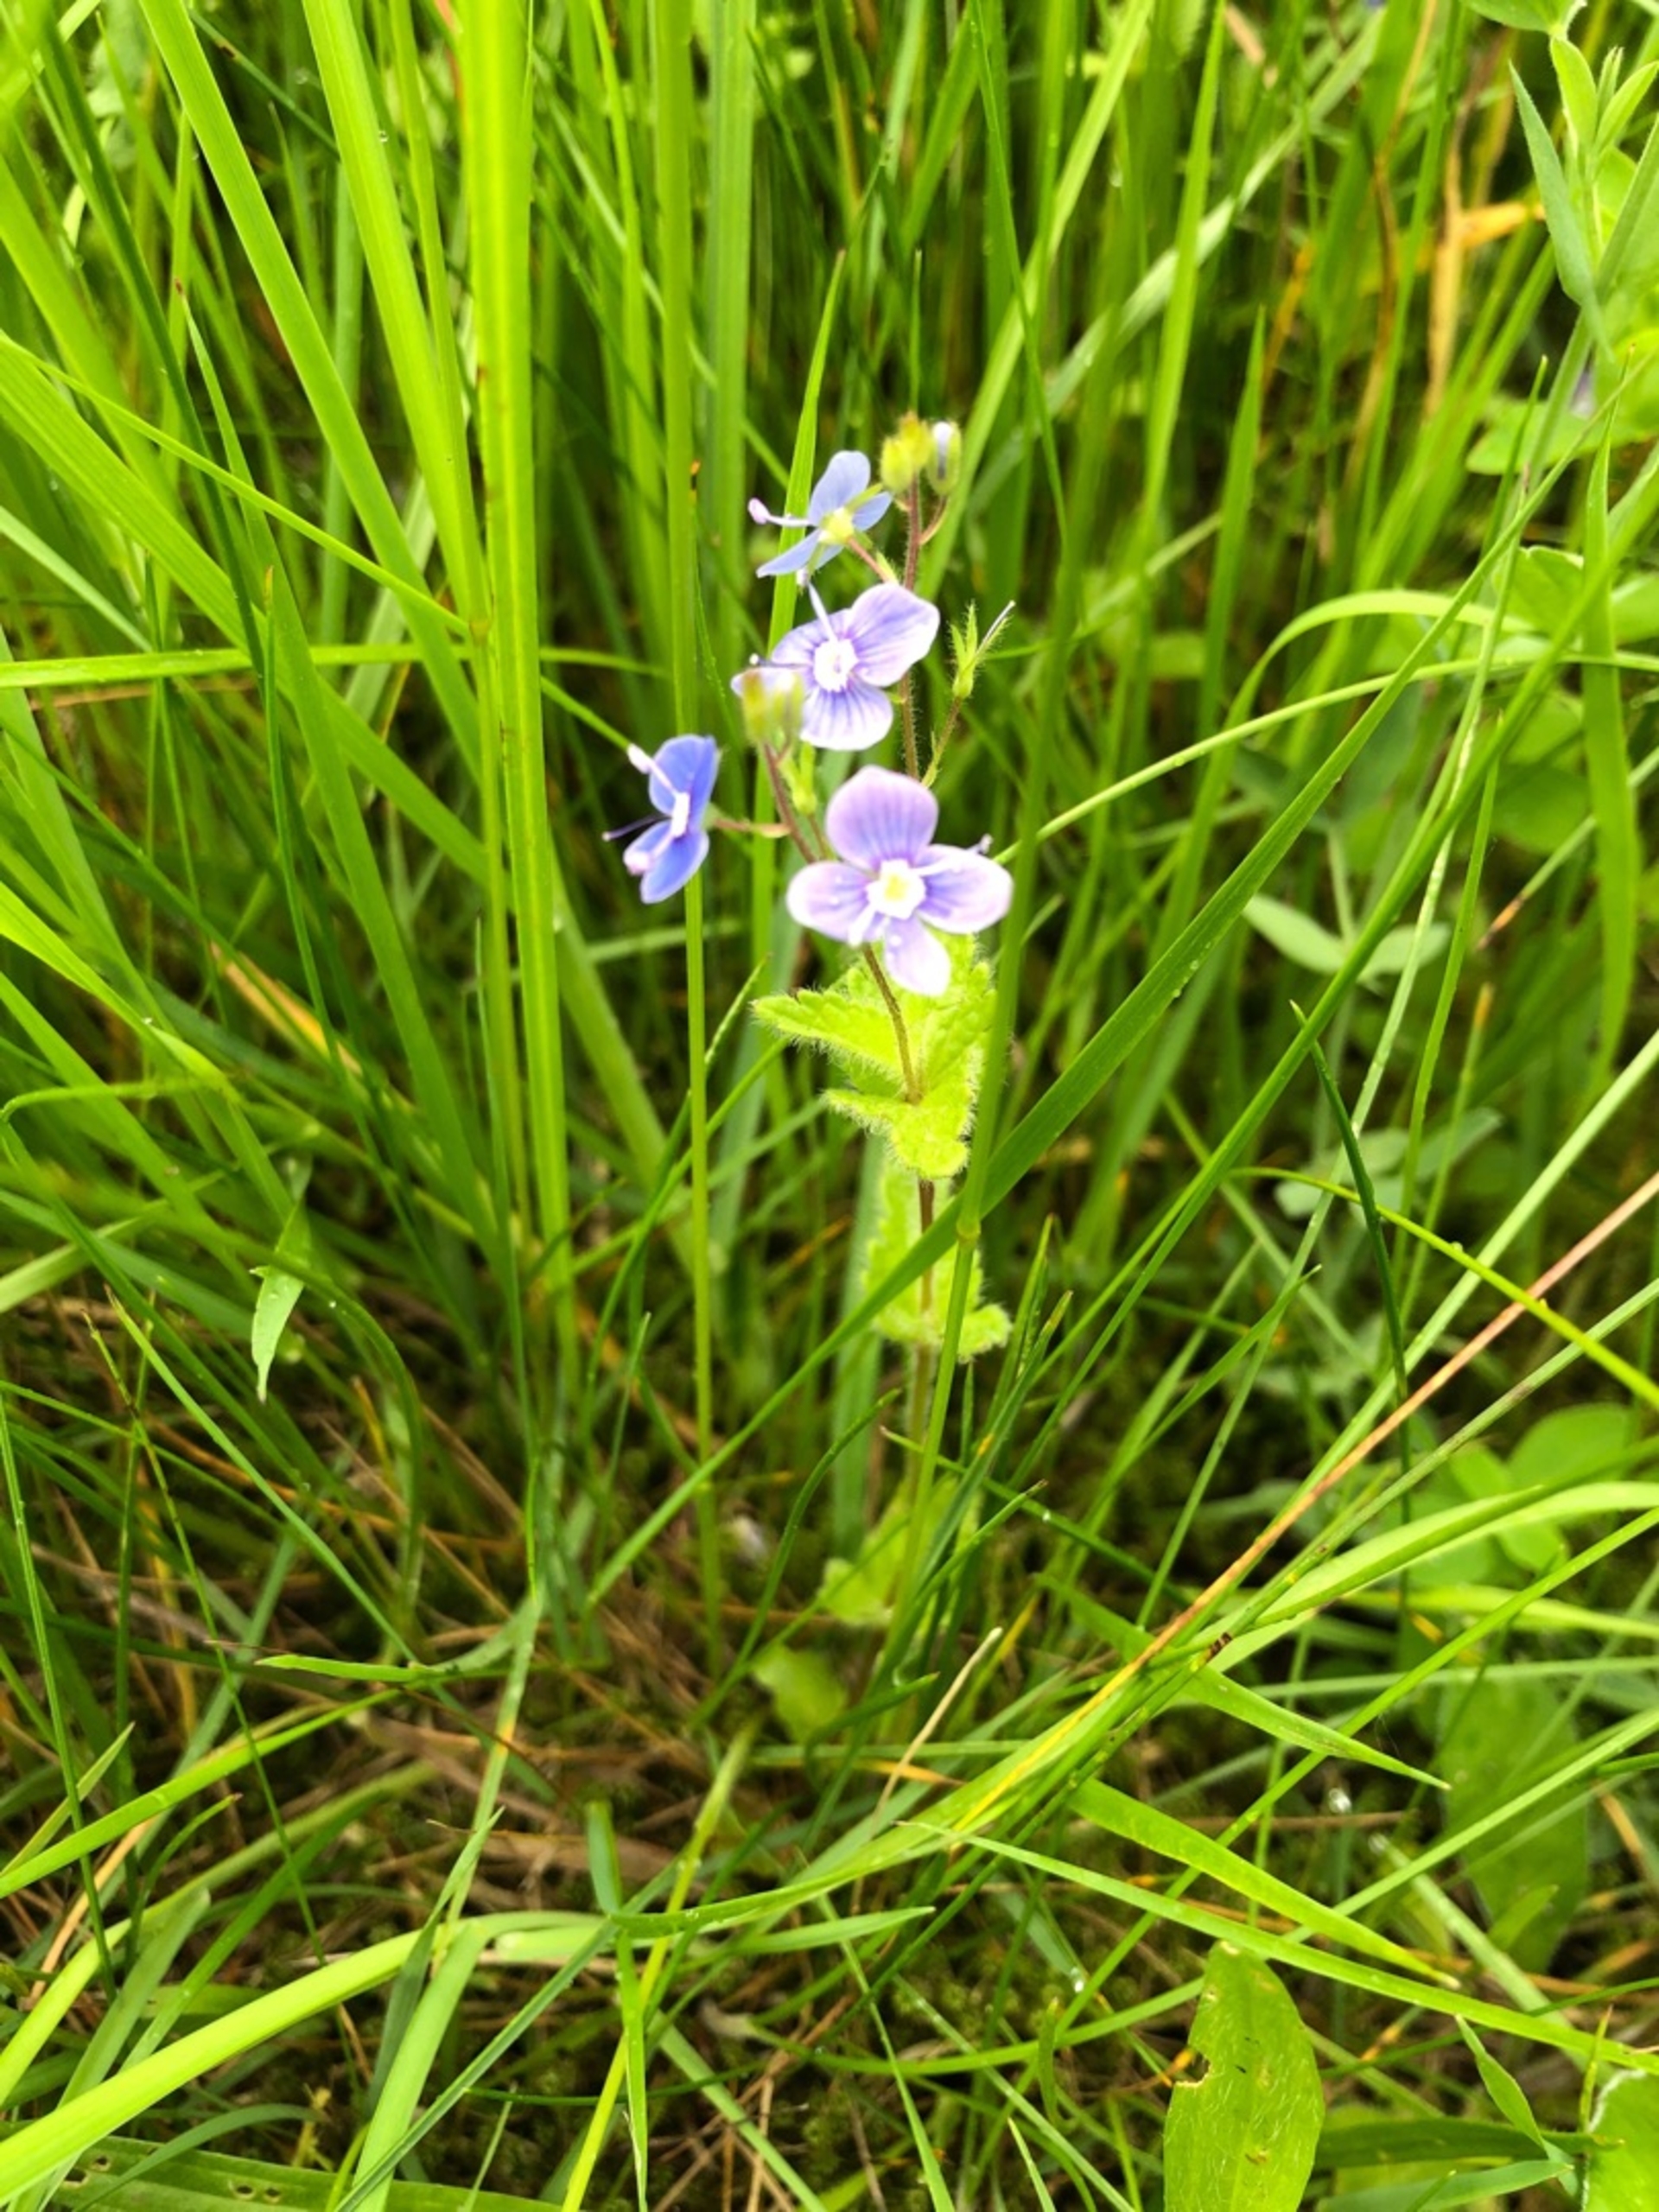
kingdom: Plantae
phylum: Tracheophyta
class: Magnoliopsida
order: Lamiales
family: Plantaginaceae
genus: Veronica
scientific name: Veronica chamaedrys
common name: Tveskægget ærenpris
